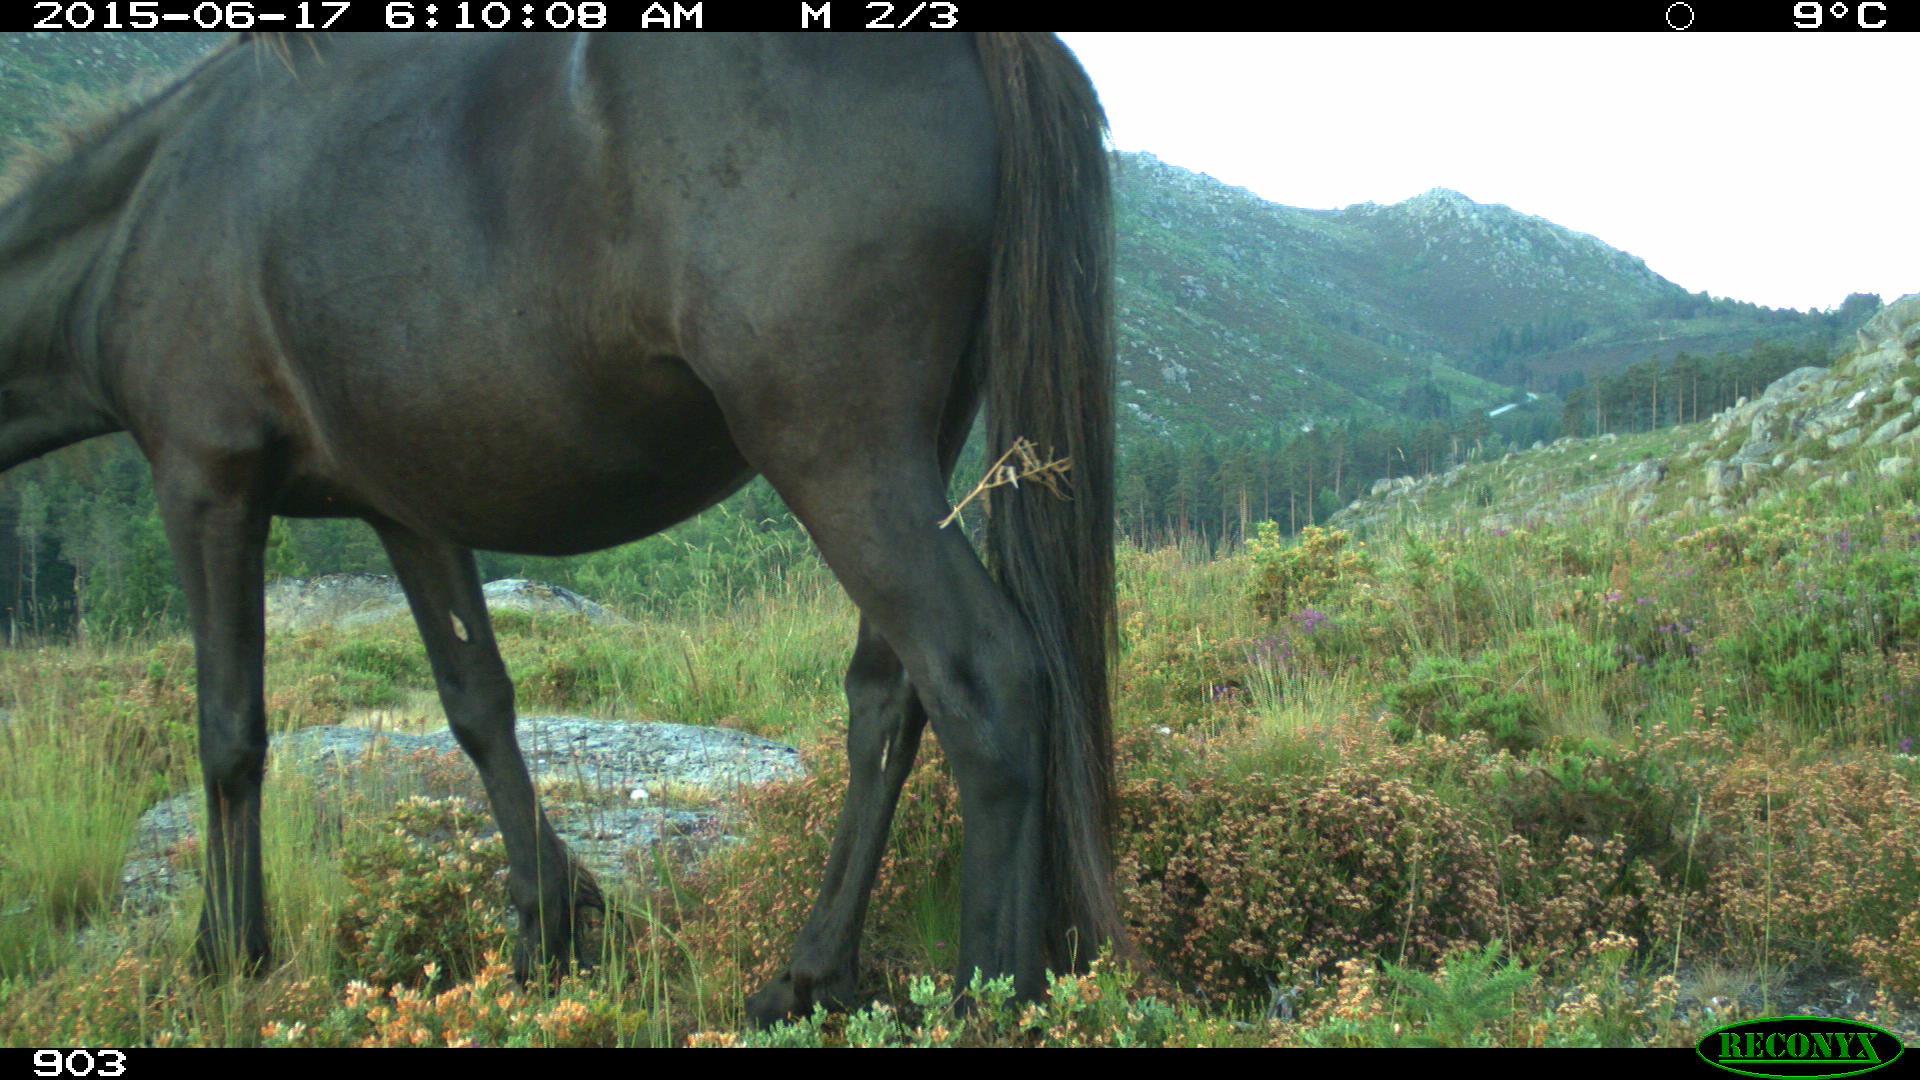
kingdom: Animalia
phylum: Chordata
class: Mammalia
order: Perissodactyla
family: Equidae
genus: Equus
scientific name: Equus caballus
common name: Horse
